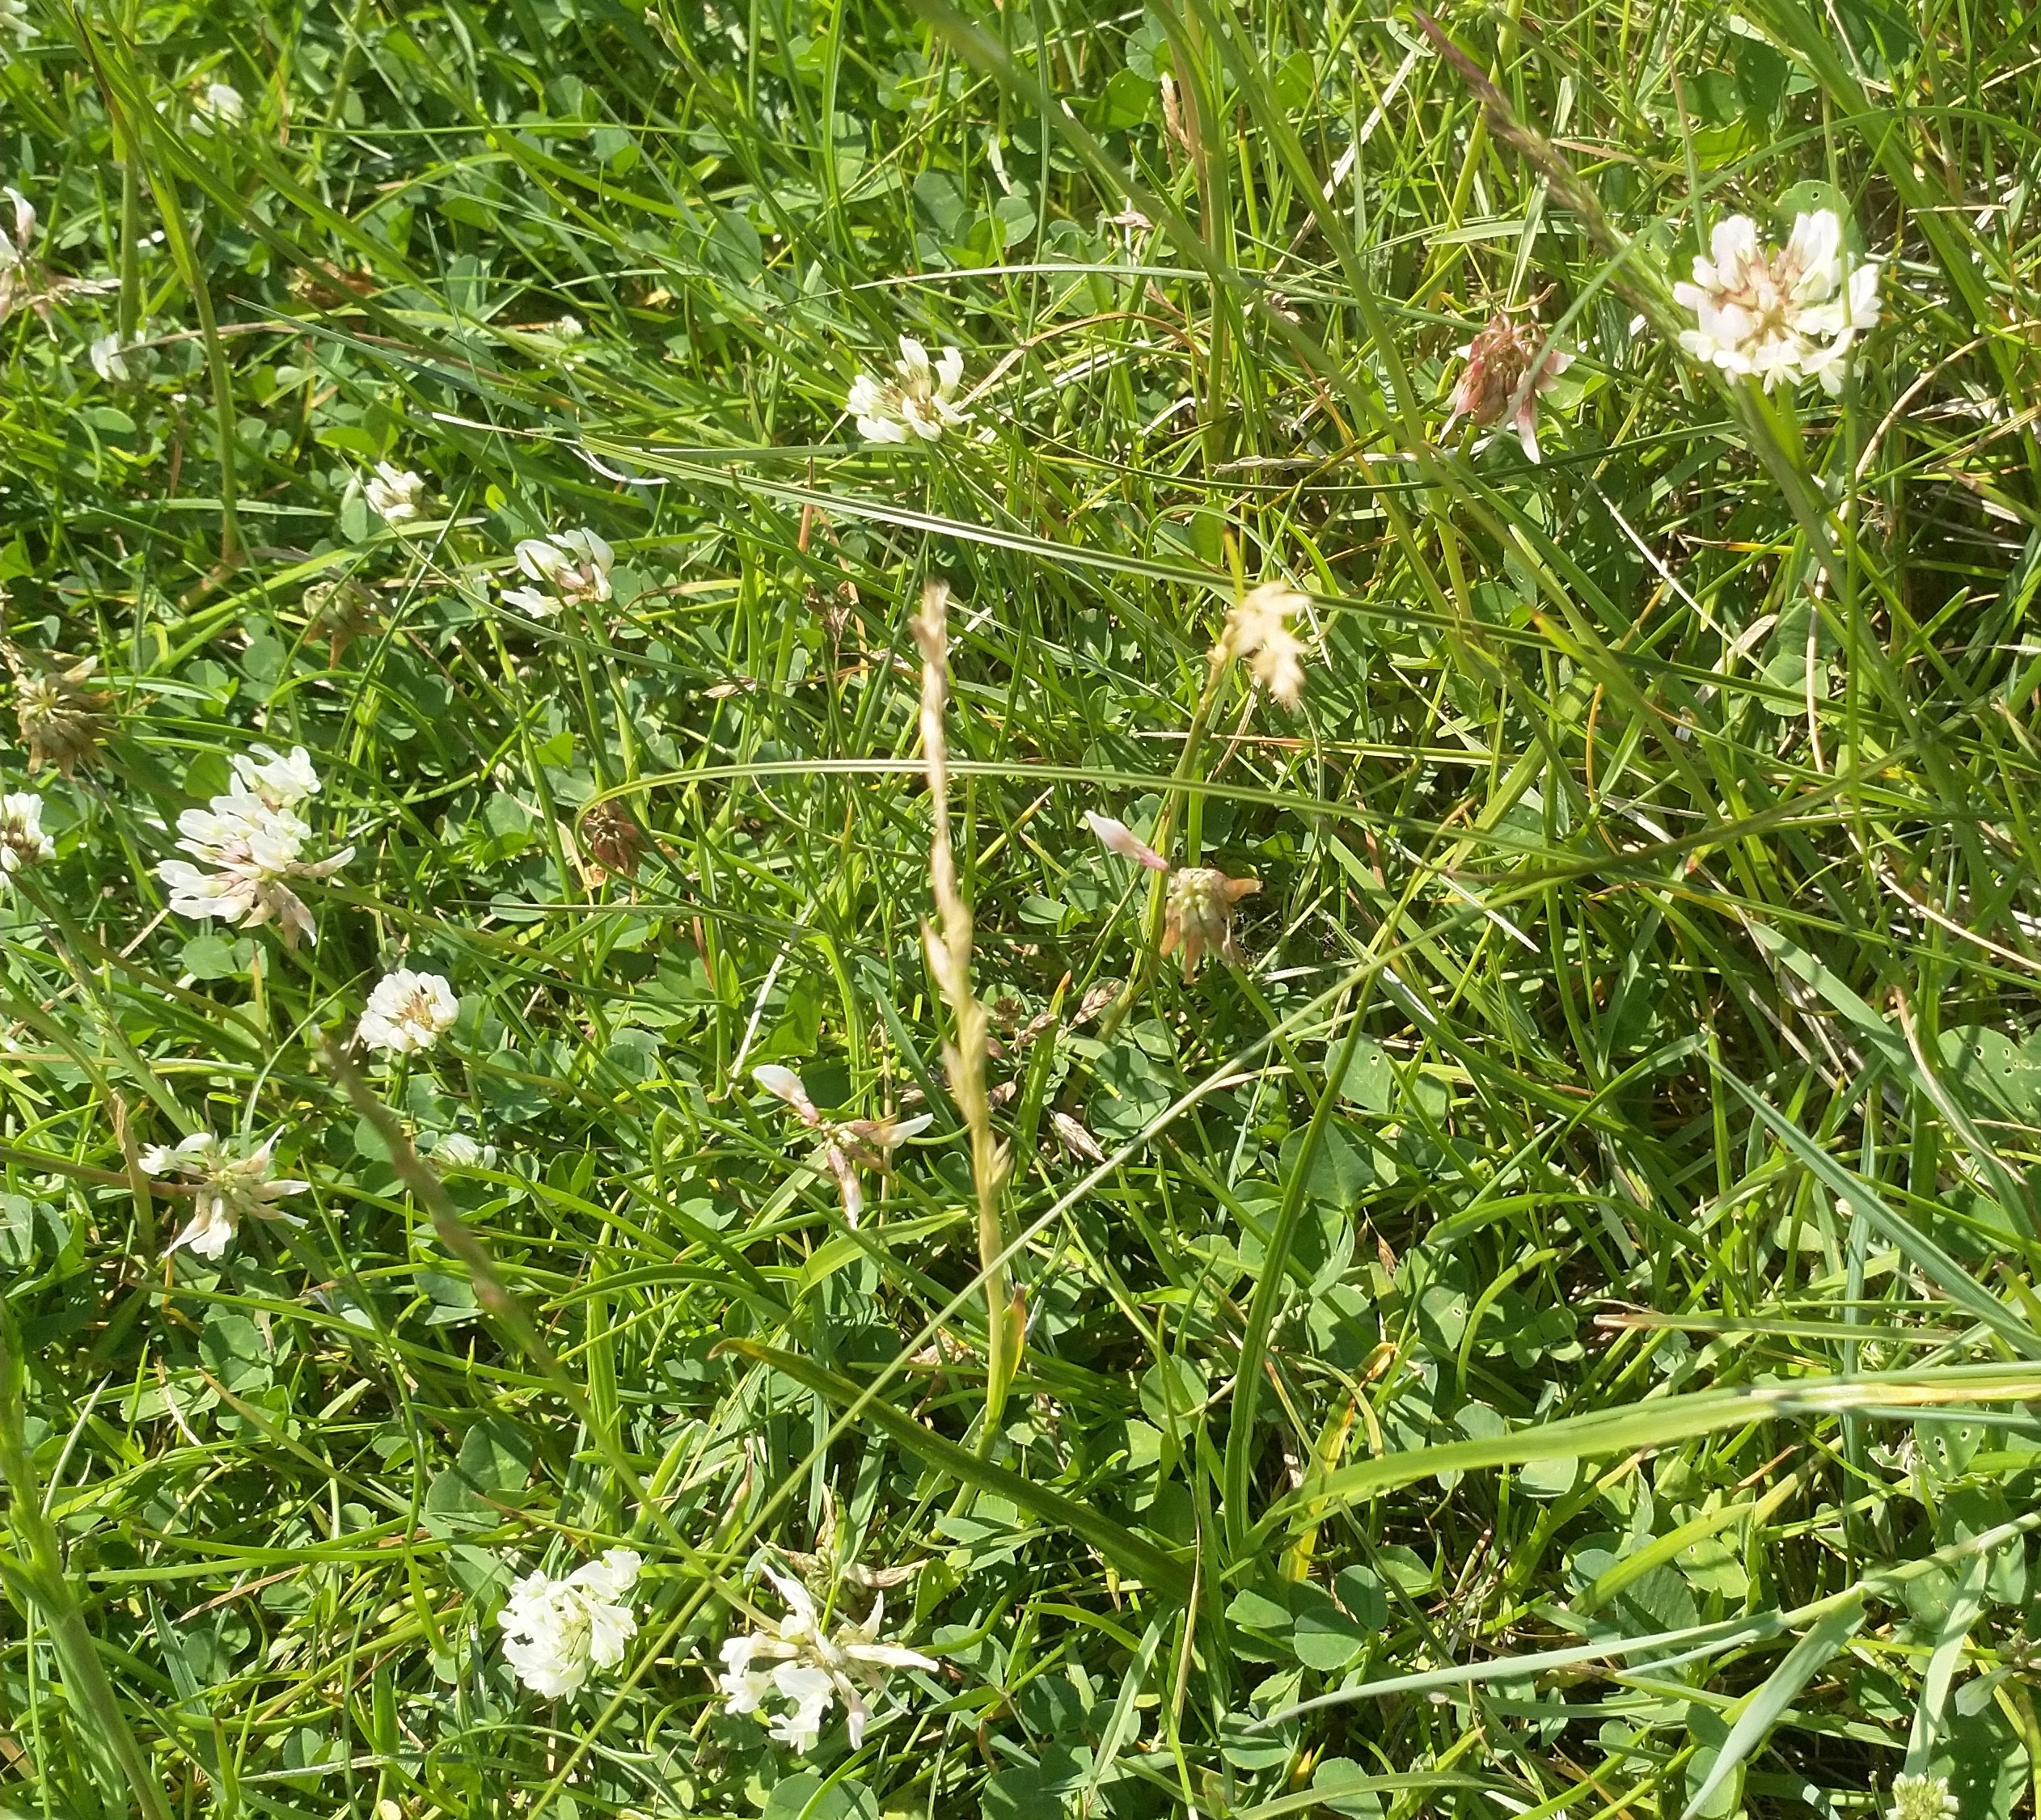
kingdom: Plantae
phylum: Tracheophyta
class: Magnoliopsida
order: Fabales
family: Fabaceae
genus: Trifolium
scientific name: Trifolium repens
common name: Hvid-kløver
